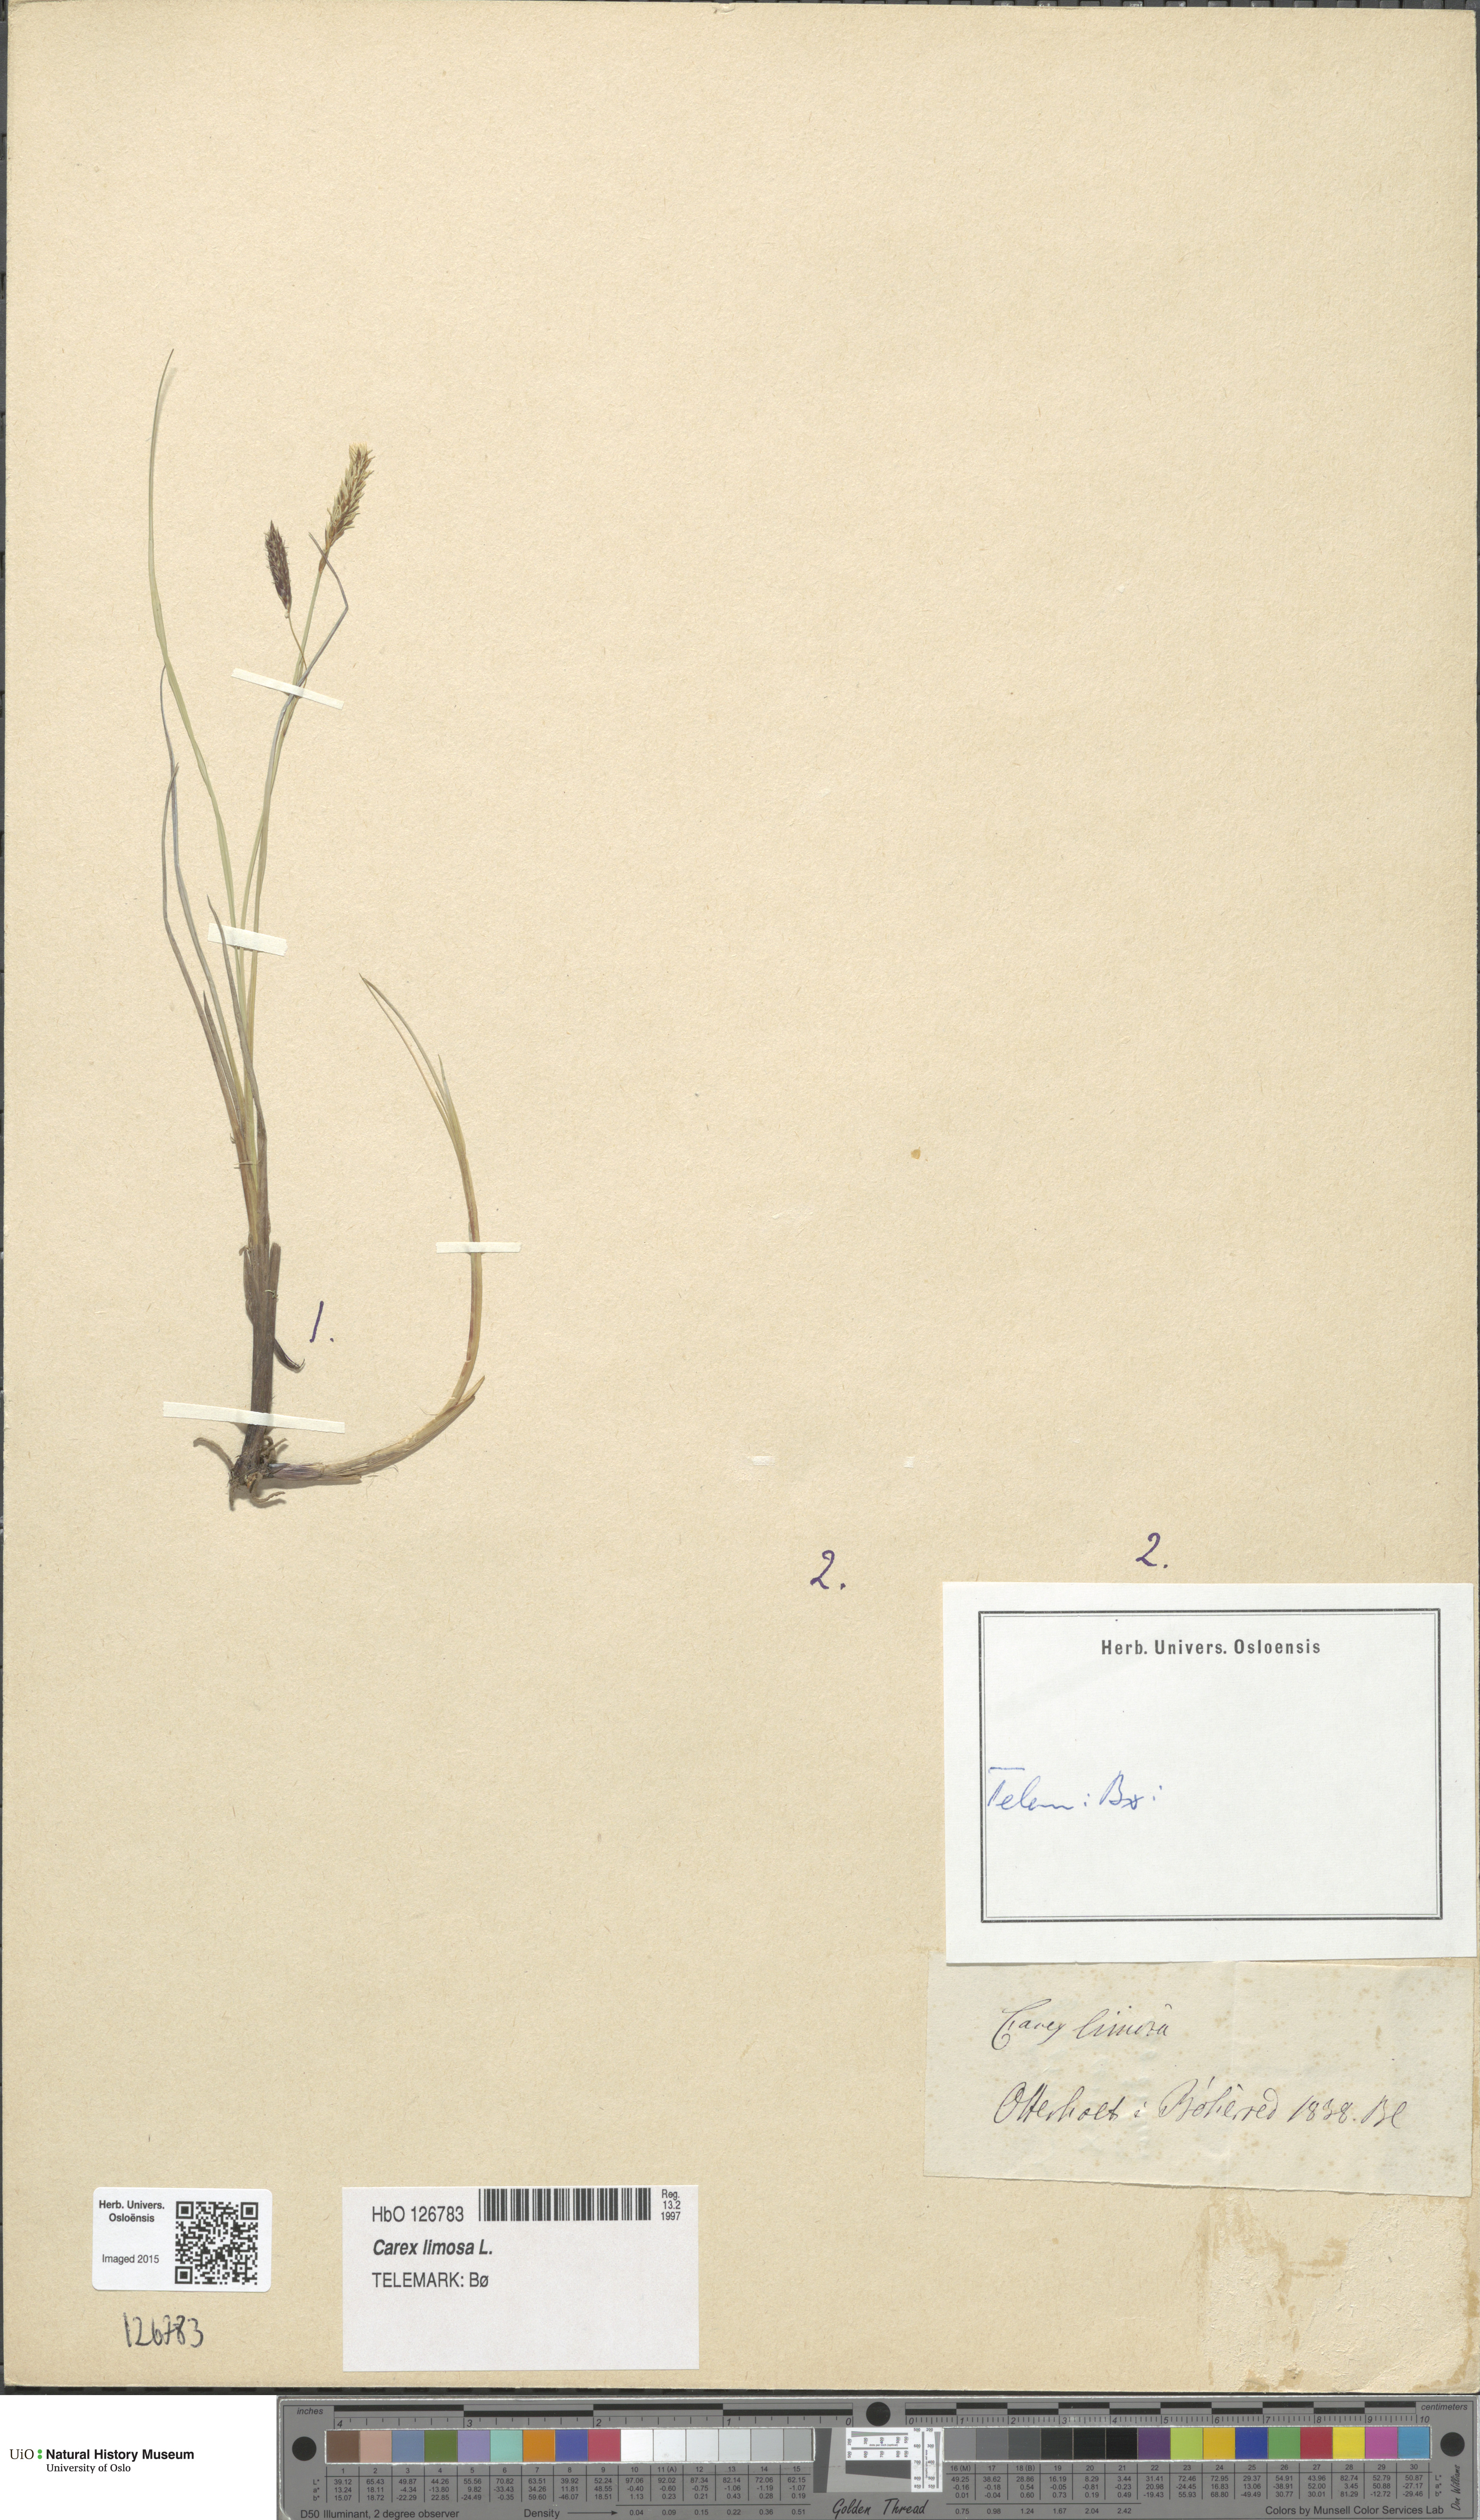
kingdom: Plantae
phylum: Tracheophyta
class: Liliopsida
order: Poales
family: Cyperaceae
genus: Carex
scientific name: Carex limosa
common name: Bog sedge
